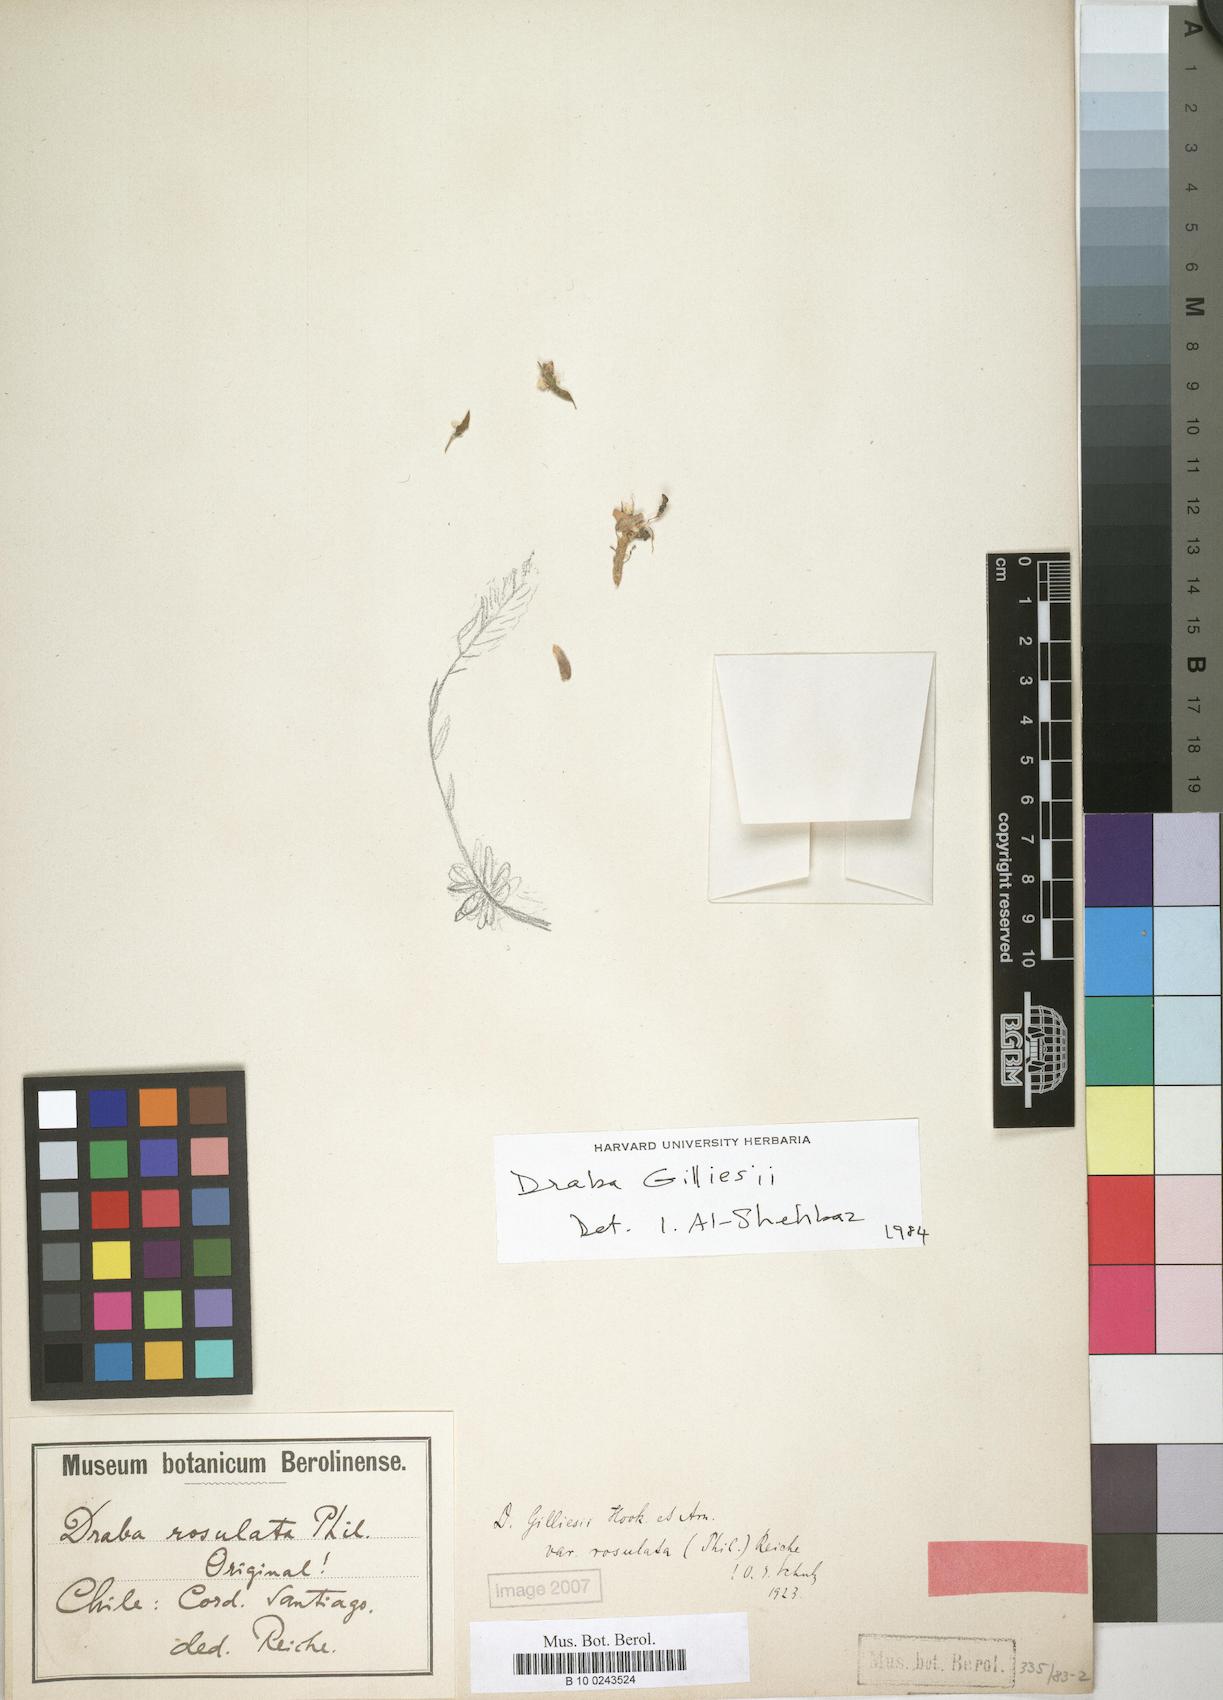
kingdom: Plantae
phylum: Tracheophyta
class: Magnoliopsida
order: Brassicales
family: Brassicaceae
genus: Draba
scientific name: Draba gilliesii
